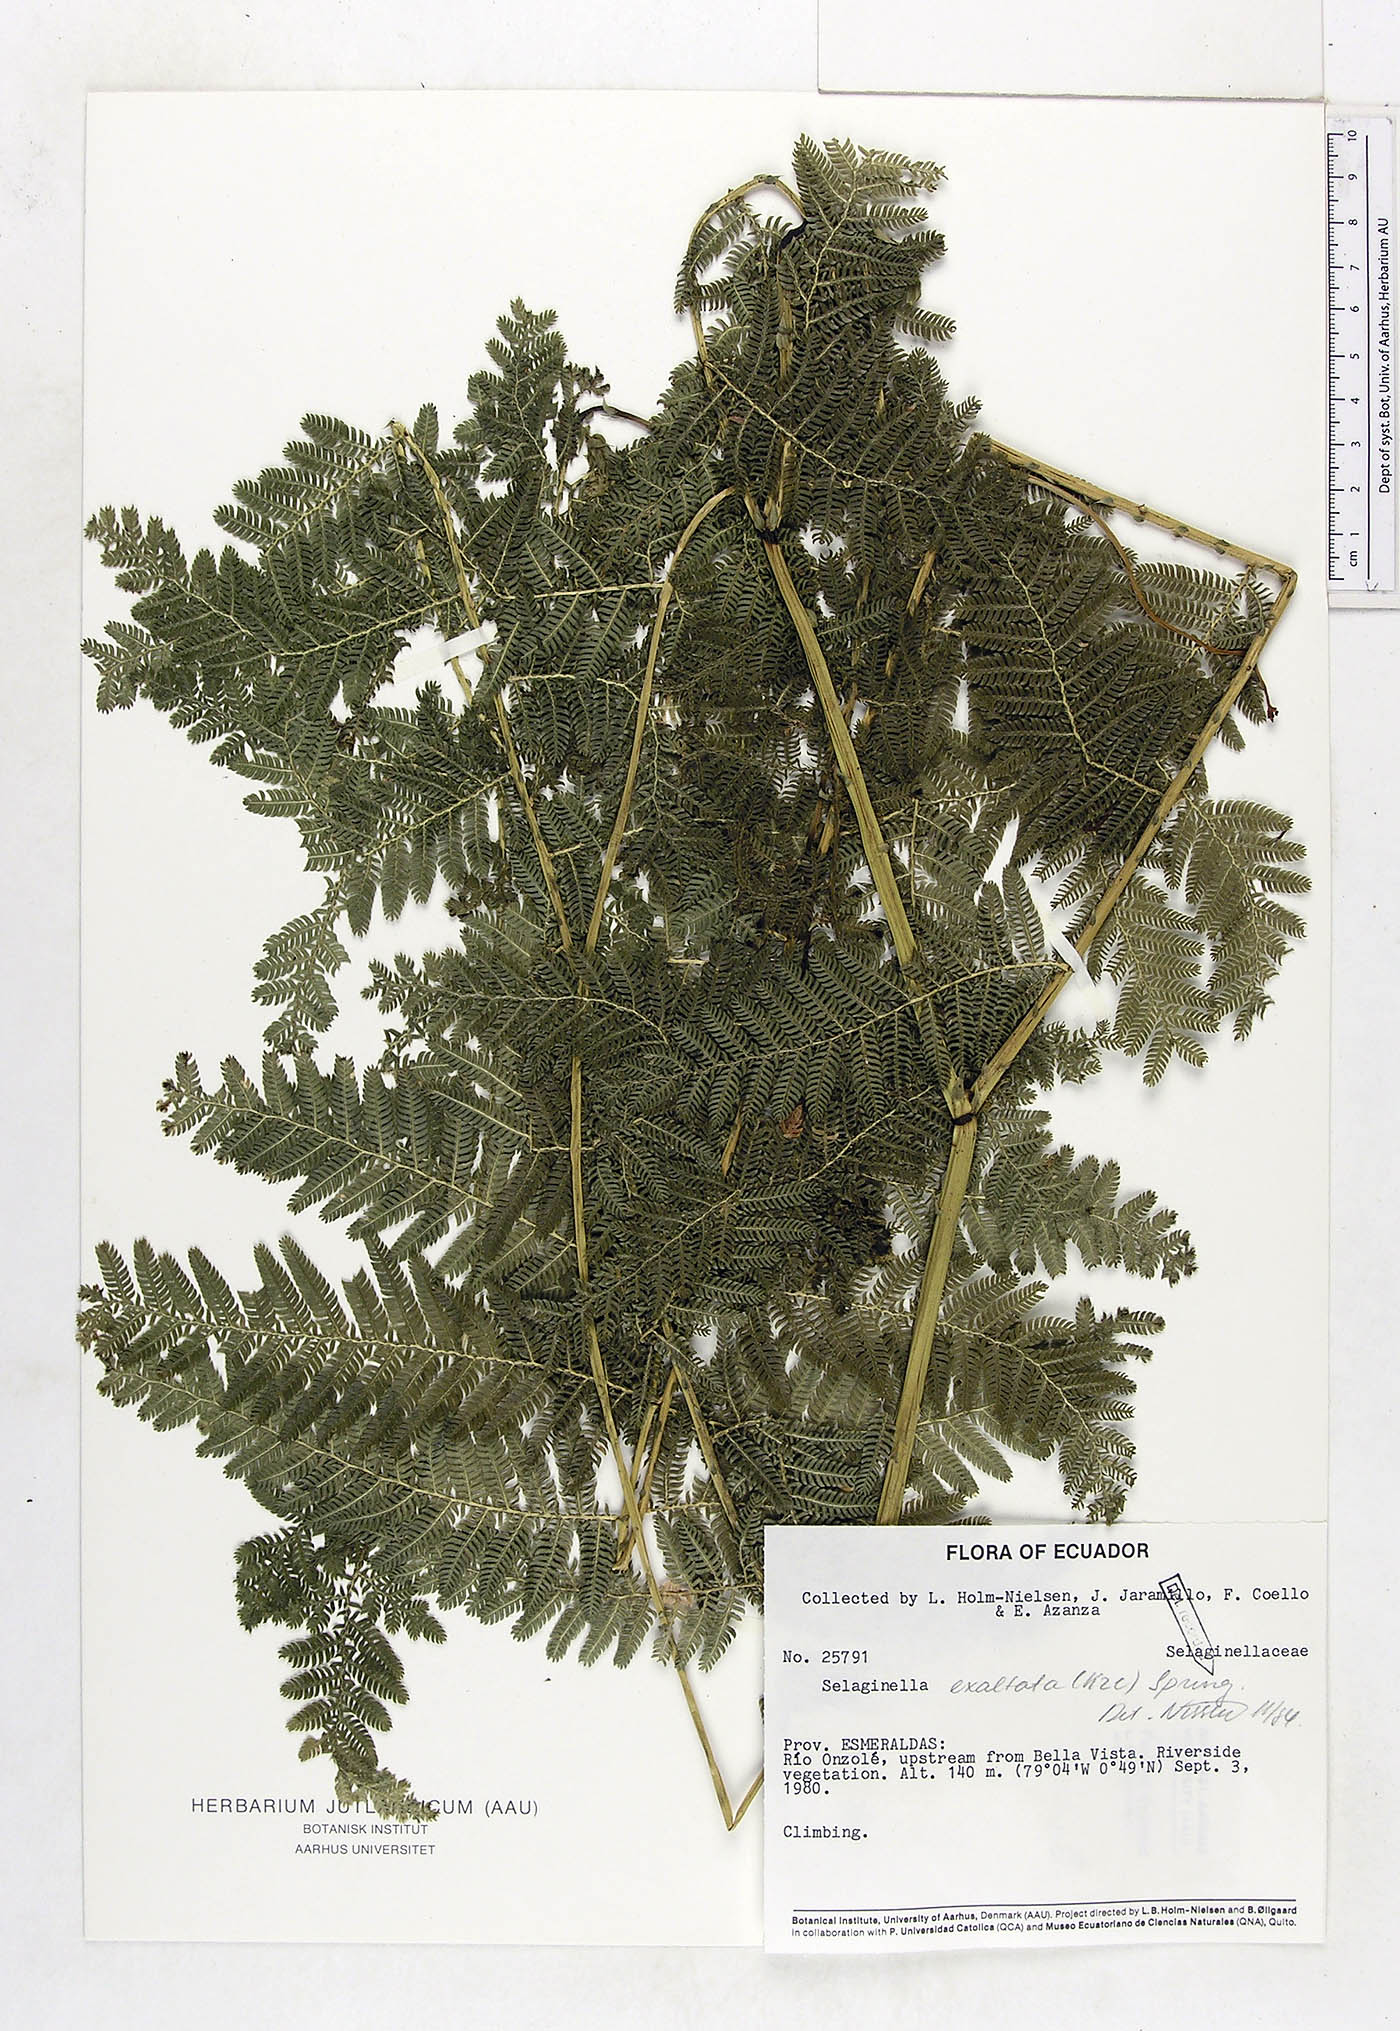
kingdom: Plantae
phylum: Tracheophyta
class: Lycopodiopsida
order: Selaginellales
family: Selaginellaceae
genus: Selaginella
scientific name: Selaginella exaltata
